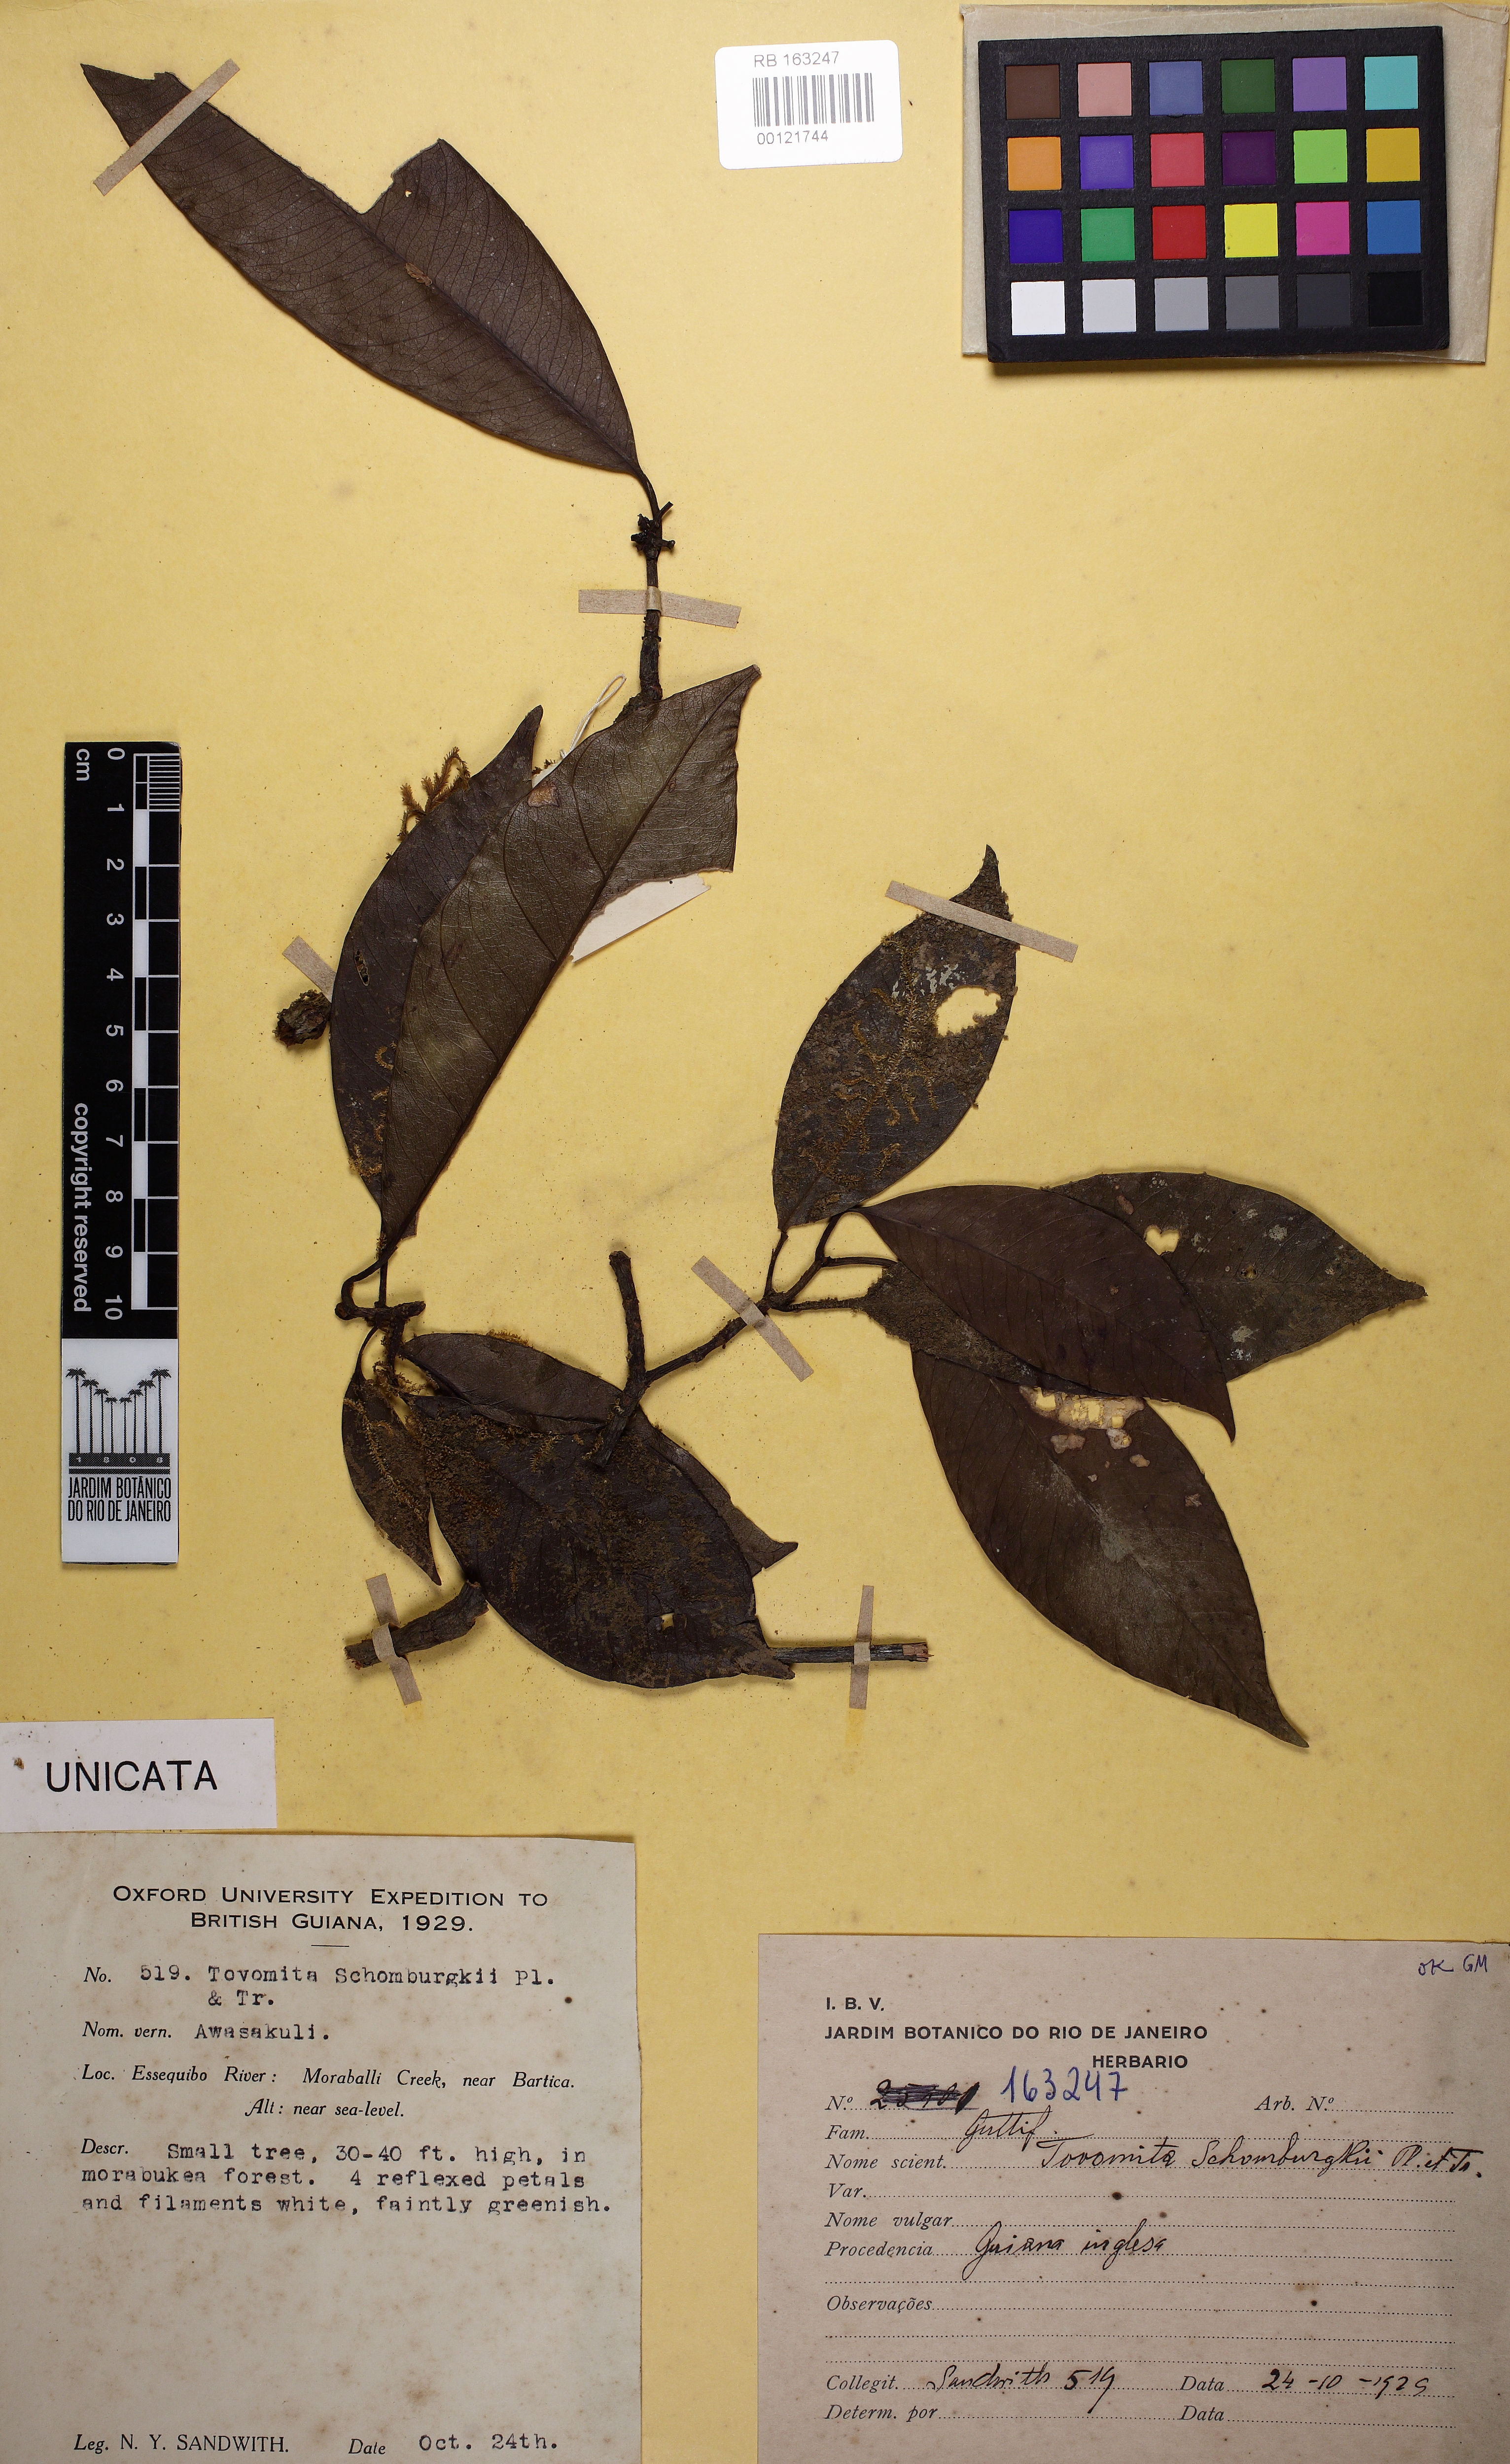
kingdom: Plantae
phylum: Tracheophyta
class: Magnoliopsida
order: Malpighiales
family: Clusiaceae
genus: Tovomita
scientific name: Tovomita schomburgkii
